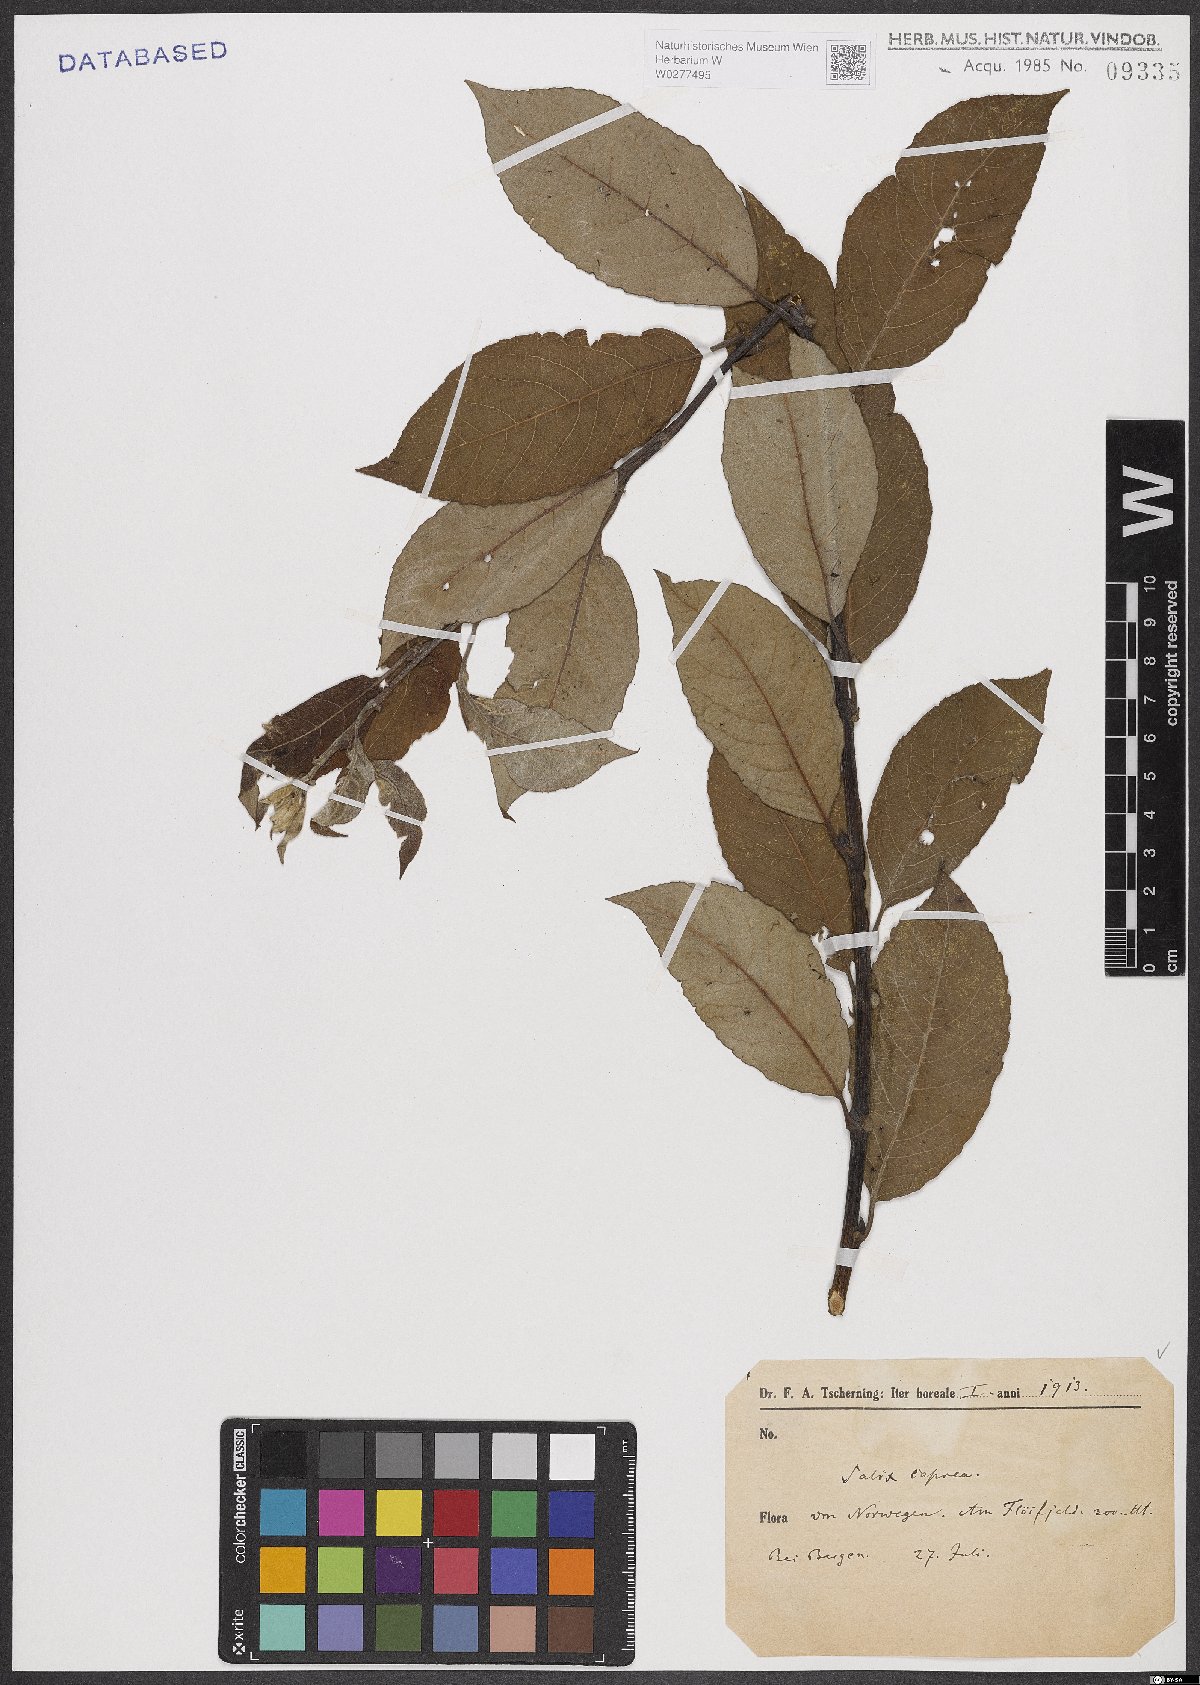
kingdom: Plantae
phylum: Tracheophyta
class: Magnoliopsida
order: Malpighiales
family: Salicaceae
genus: Salix
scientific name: Salix caprea
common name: Goat willow
